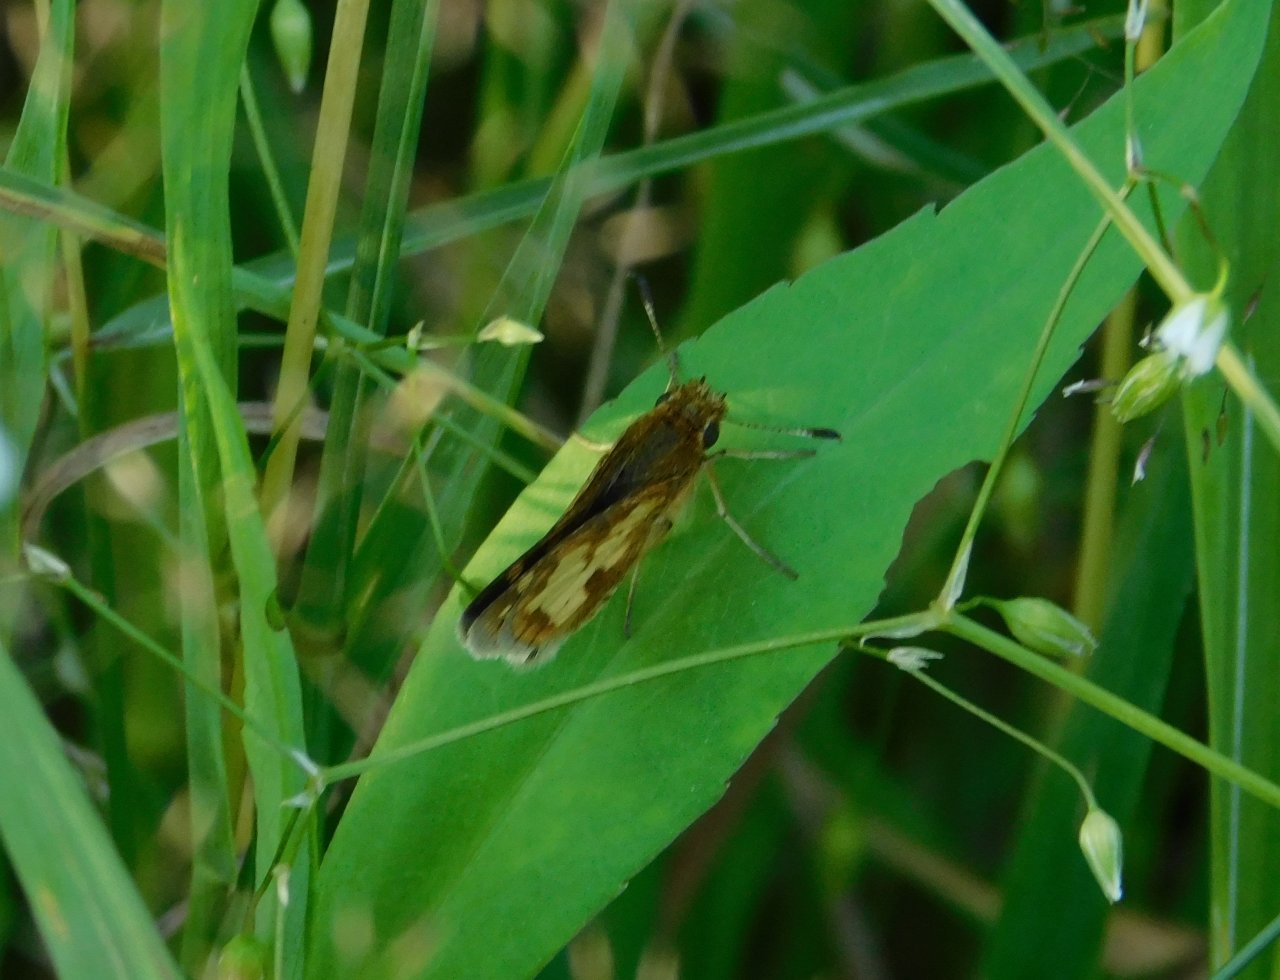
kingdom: Animalia
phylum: Arthropoda
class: Insecta
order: Lepidoptera
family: Hesperiidae
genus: Polites
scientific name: Polites coras
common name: Peck's Skipper
